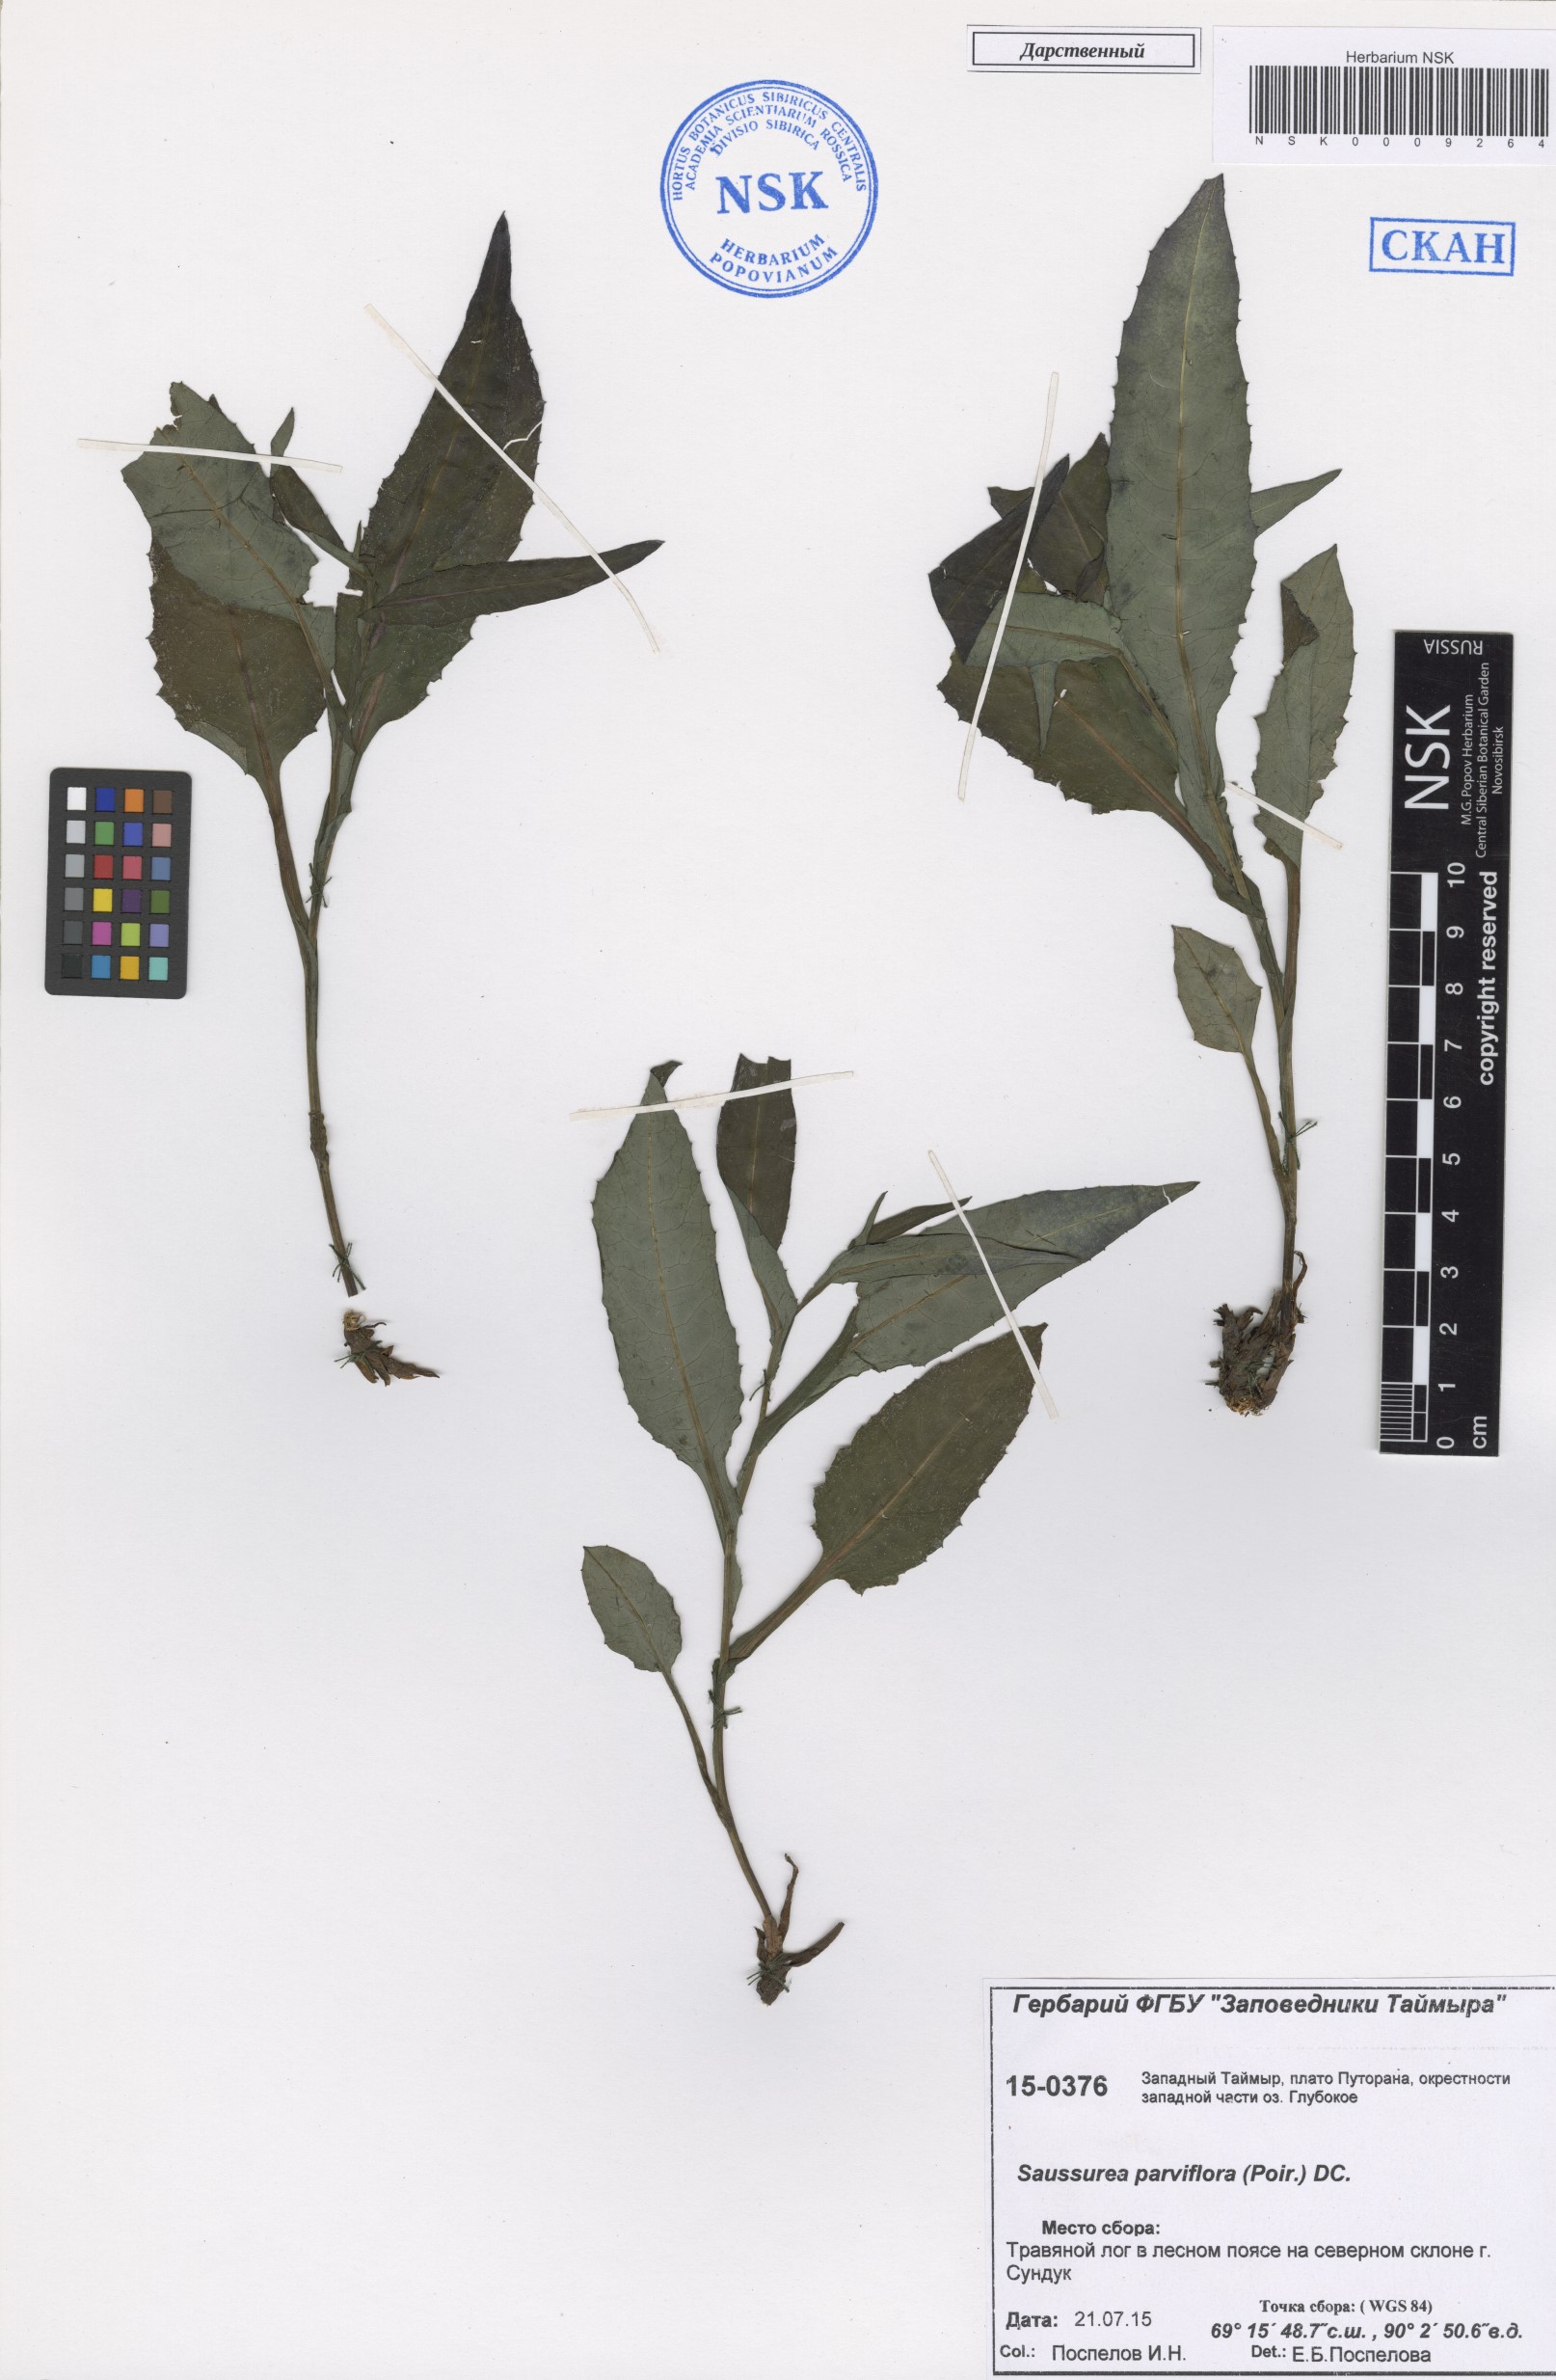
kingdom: Plantae
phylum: Tracheophyta
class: Magnoliopsida
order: Asterales
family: Asteraceae
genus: Saussurea
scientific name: Saussurea parviflora
